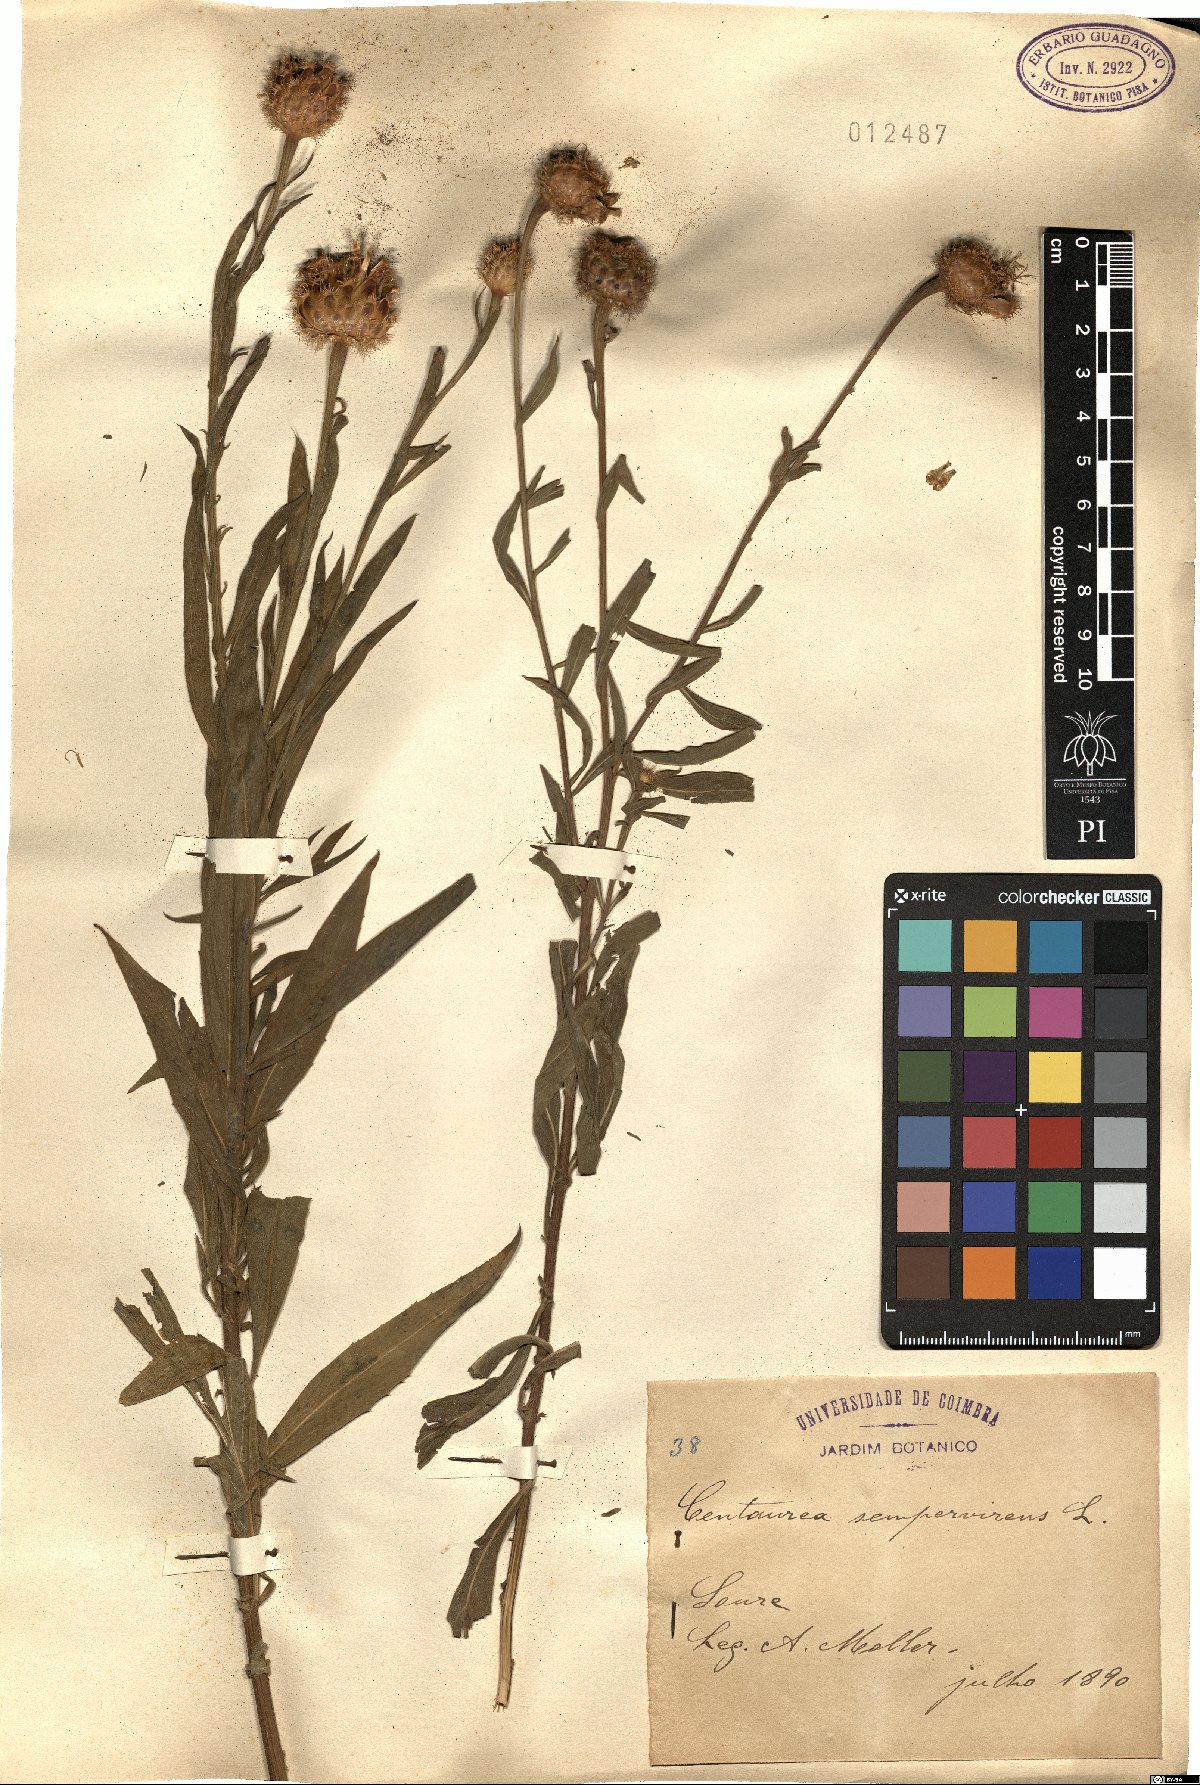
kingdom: Plantae
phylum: Tracheophyta
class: Magnoliopsida
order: Asterales
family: Asteraceae
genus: Cheirolophus
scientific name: Cheirolophus sempervirens
